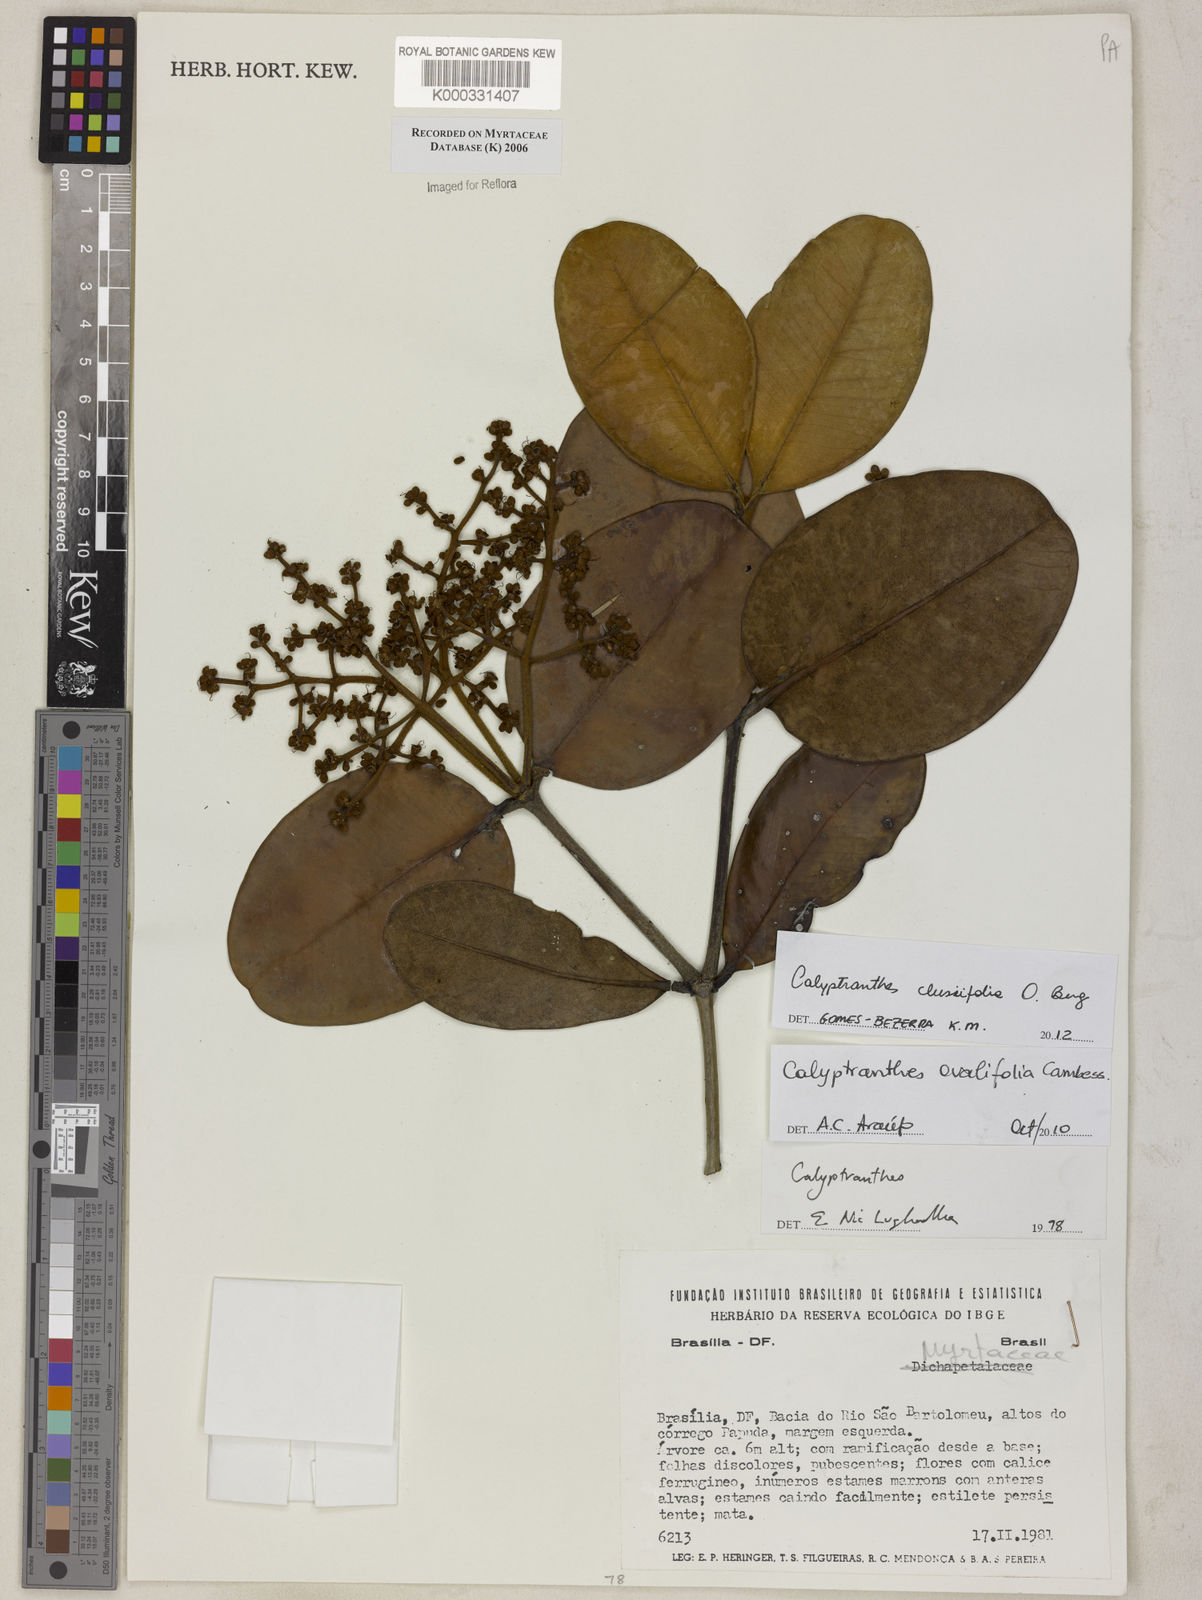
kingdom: Plantae
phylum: Tracheophyta
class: Magnoliopsida
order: Myrtales
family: Myrtaceae
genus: Calyptranthes
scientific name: Calyptranthes
